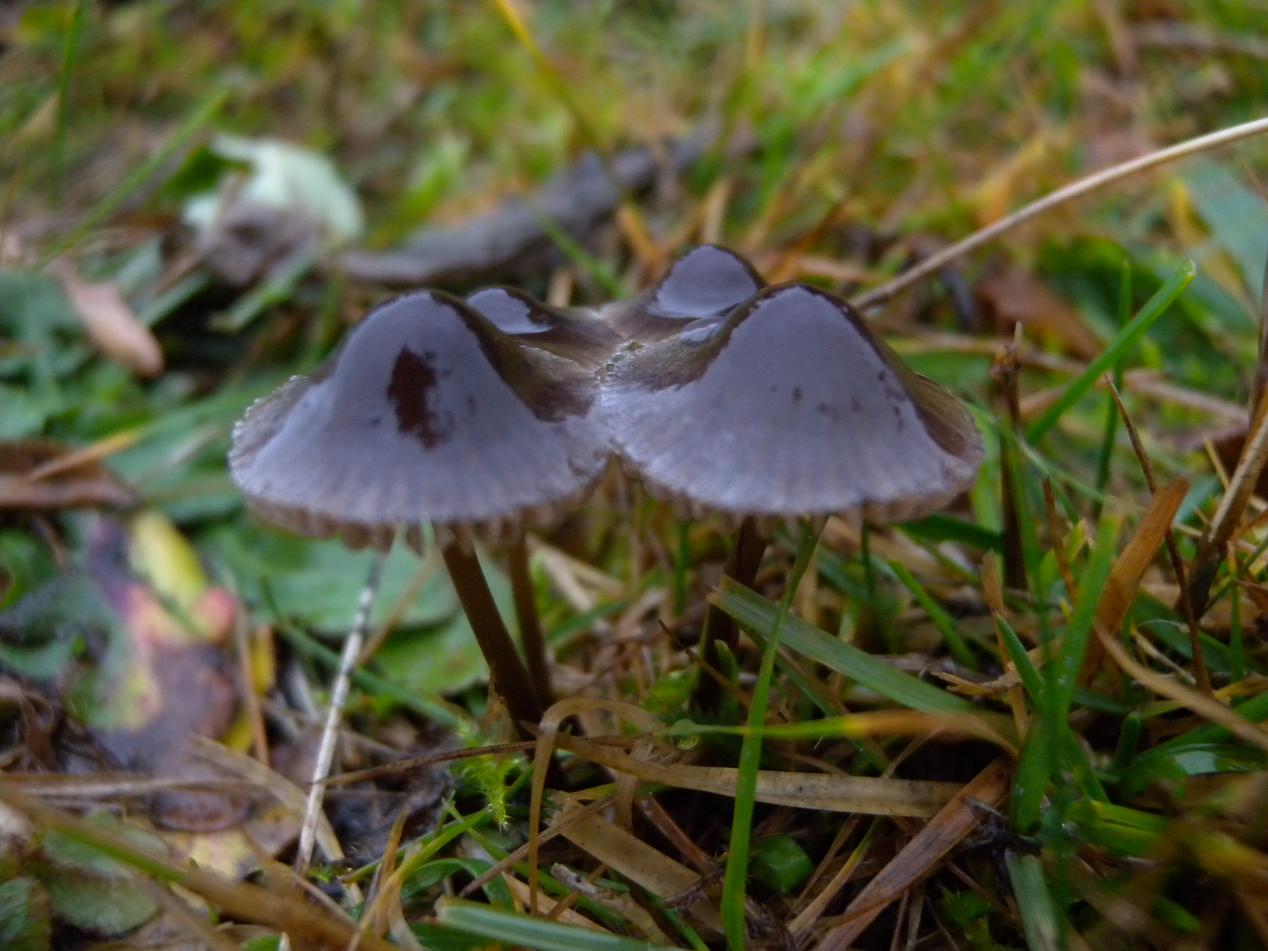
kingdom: Fungi
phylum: Basidiomycota
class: Agaricomycetes
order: Agaricales
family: Mycenaceae
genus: Mycena
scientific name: Mycena aetites
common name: plæne-huesvamp
